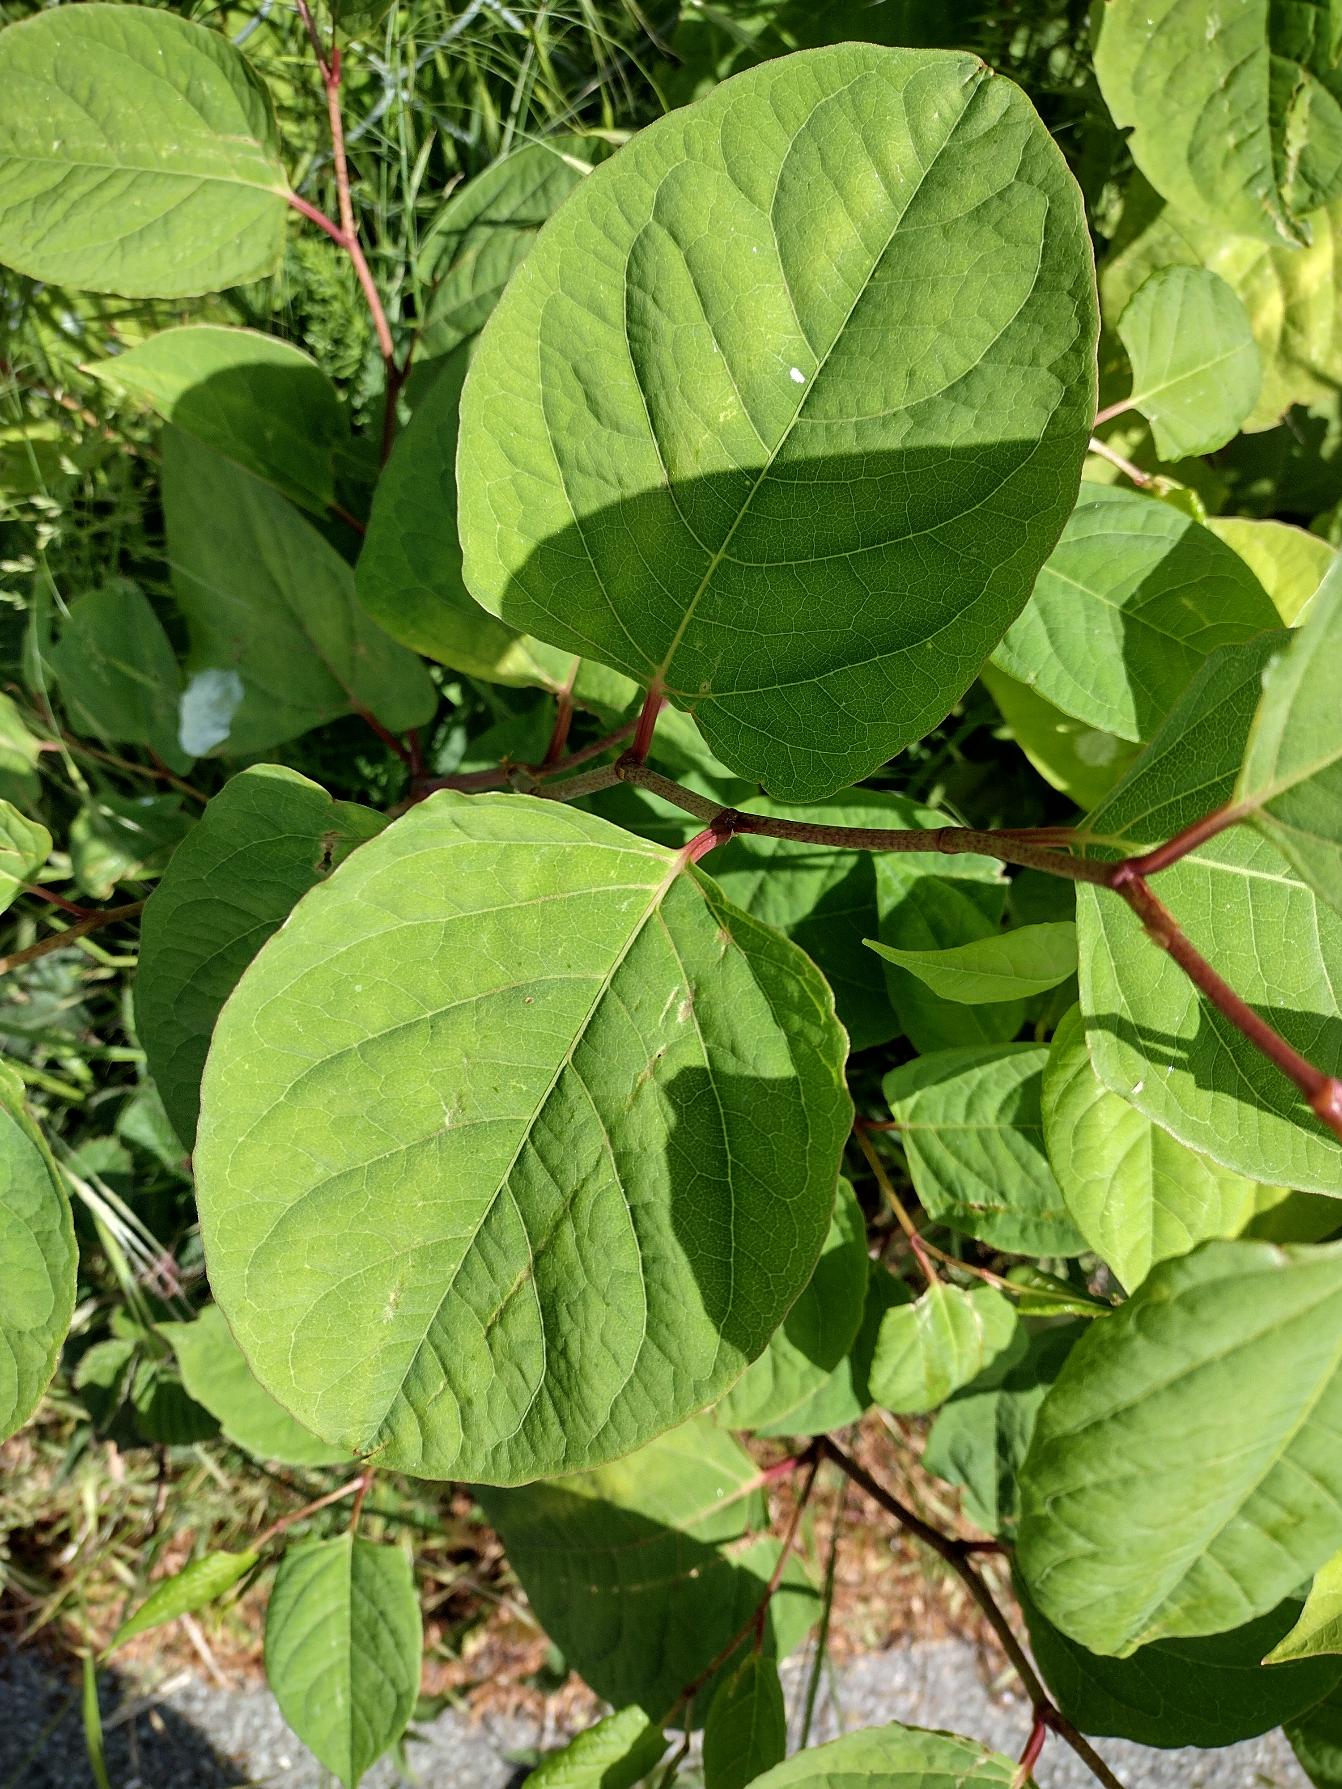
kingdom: Plantae
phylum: Tracheophyta
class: Magnoliopsida
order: Caryophyllales
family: Polygonaceae
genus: Reynoutria
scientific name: Reynoutria japonica
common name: Japan-pileurt
